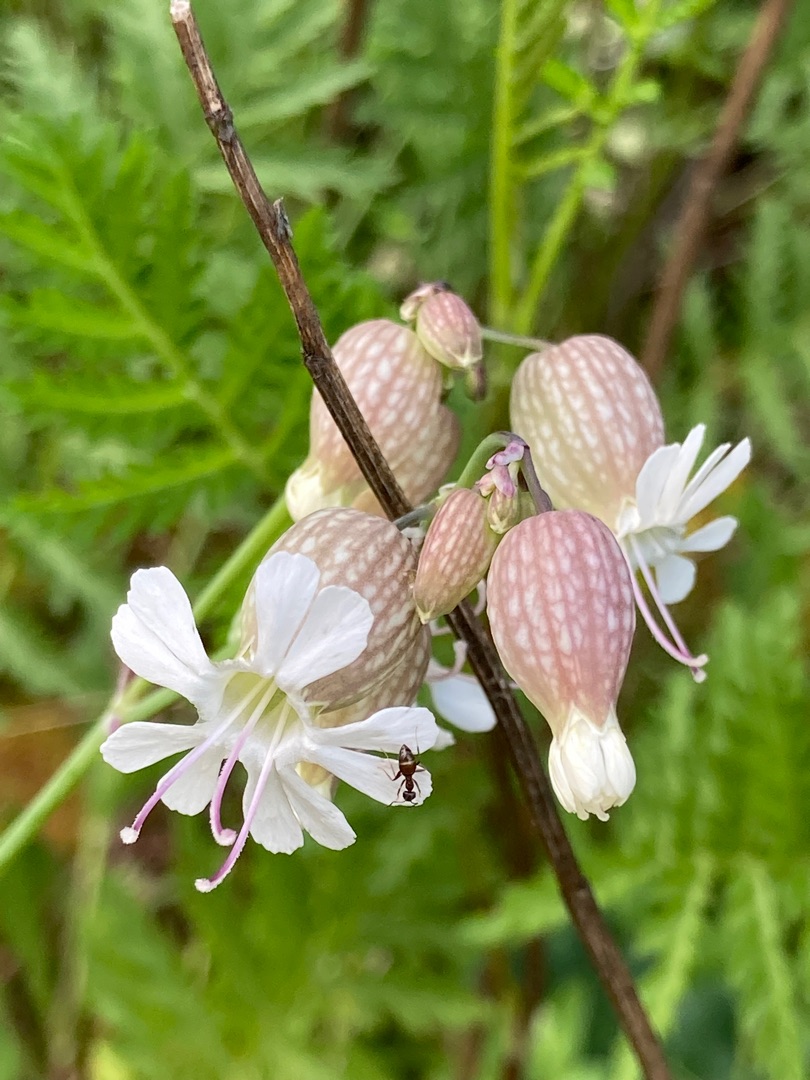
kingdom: Plantae
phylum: Tracheophyta
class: Magnoliopsida
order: Caryophyllales
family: Caryophyllaceae
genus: Silene
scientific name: Silene vulgaris
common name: Blæresmælde
